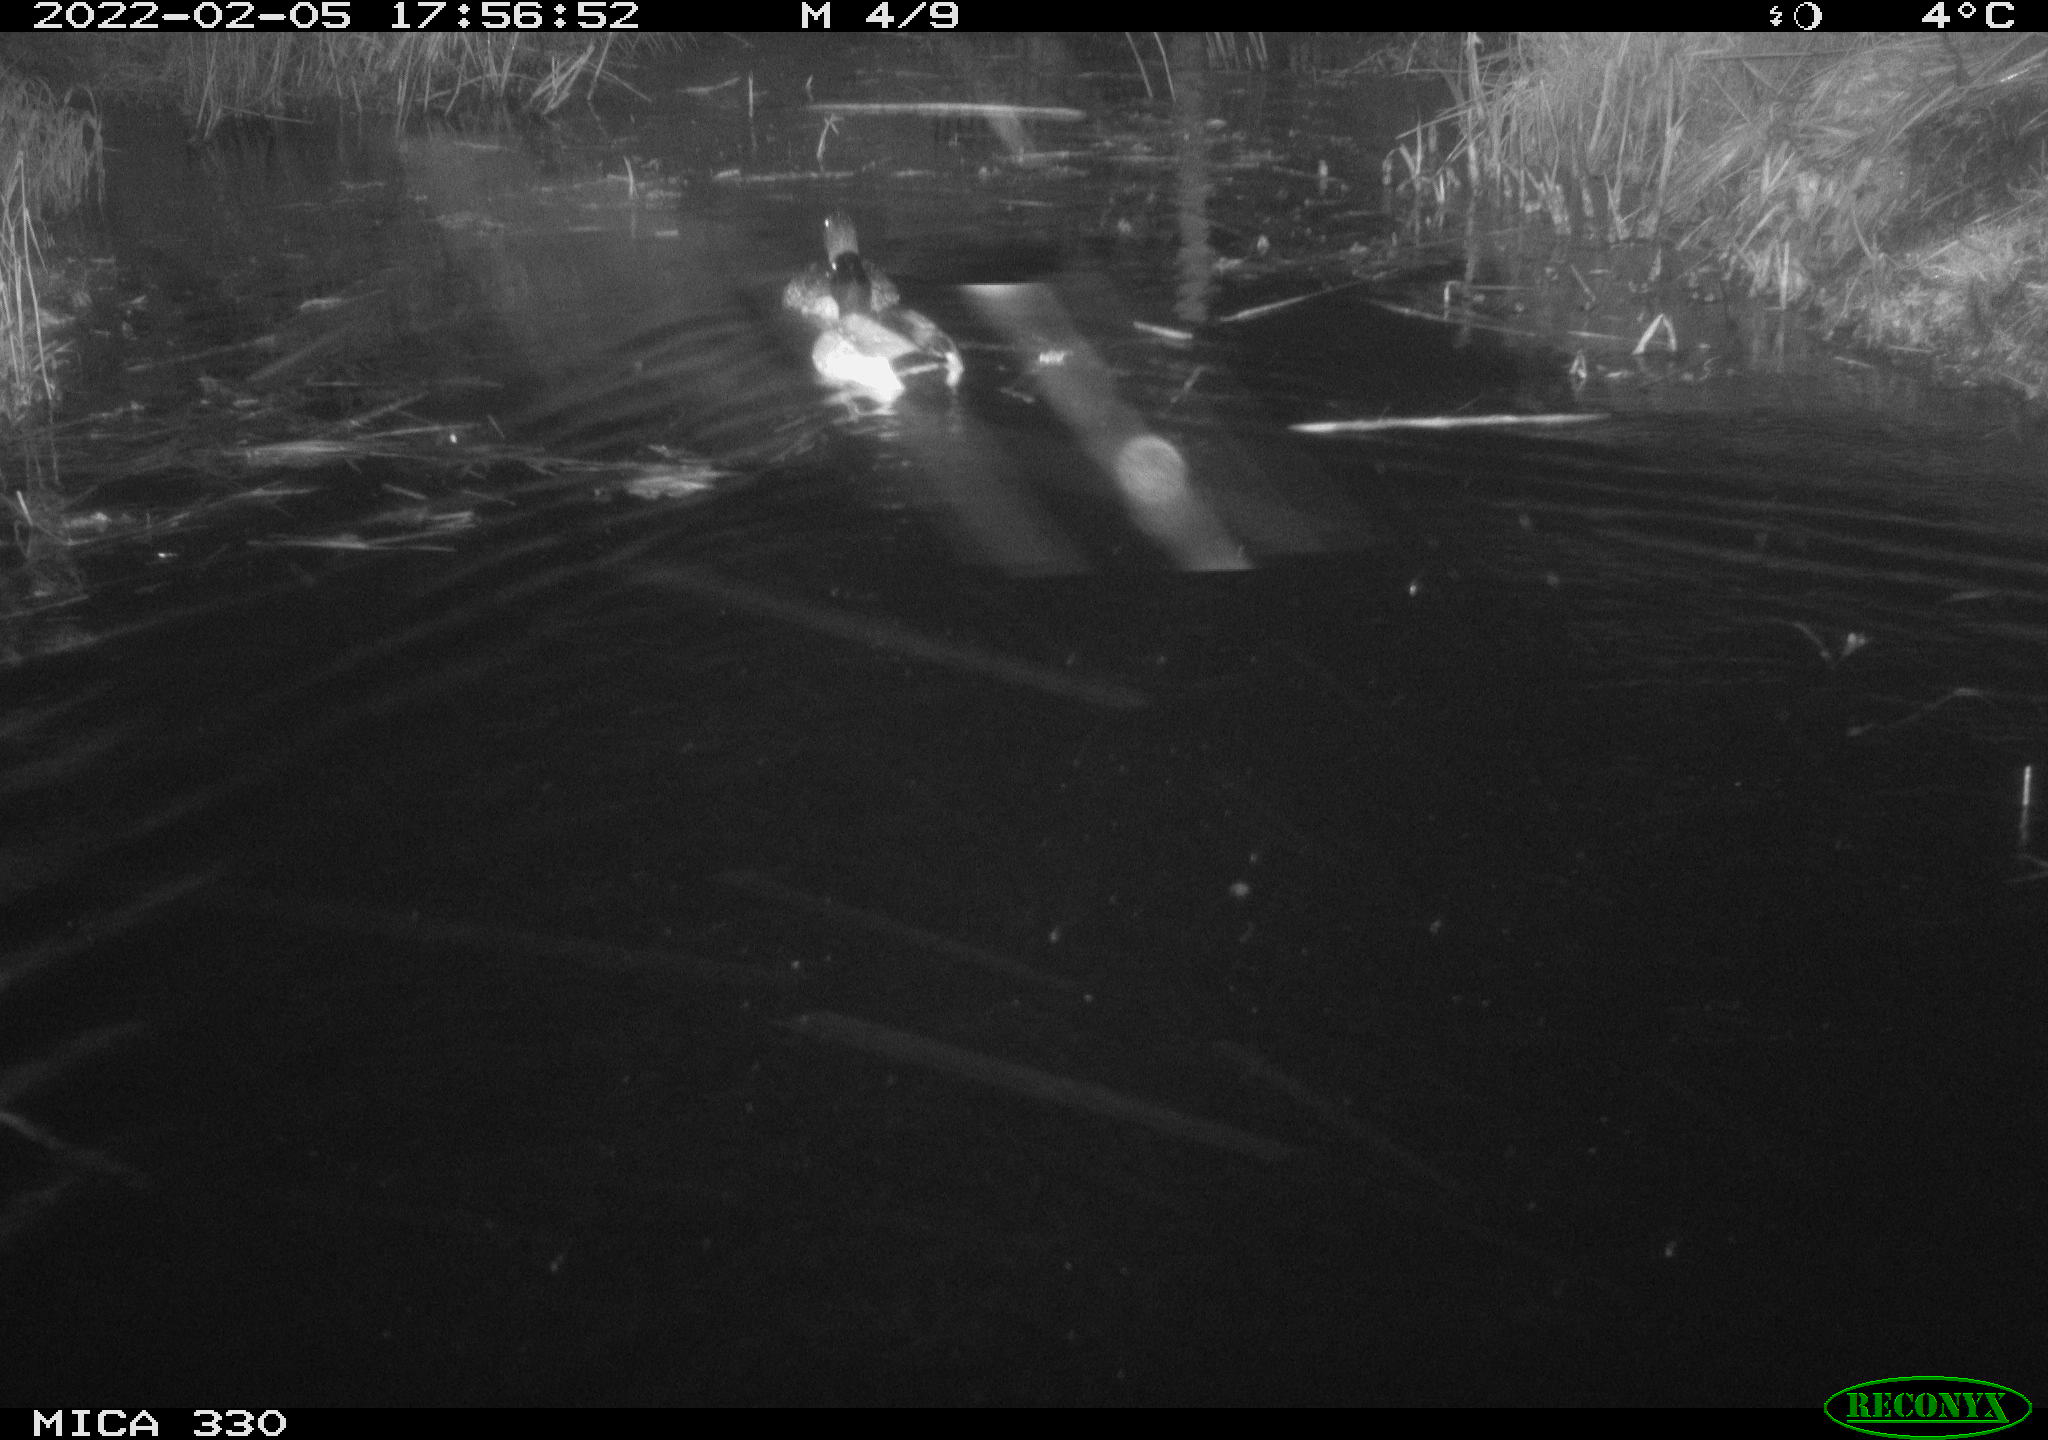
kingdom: Animalia
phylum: Chordata
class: Aves
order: Anseriformes
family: Anatidae
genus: Anas
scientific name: Anas platyrhynchos
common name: Mallard
